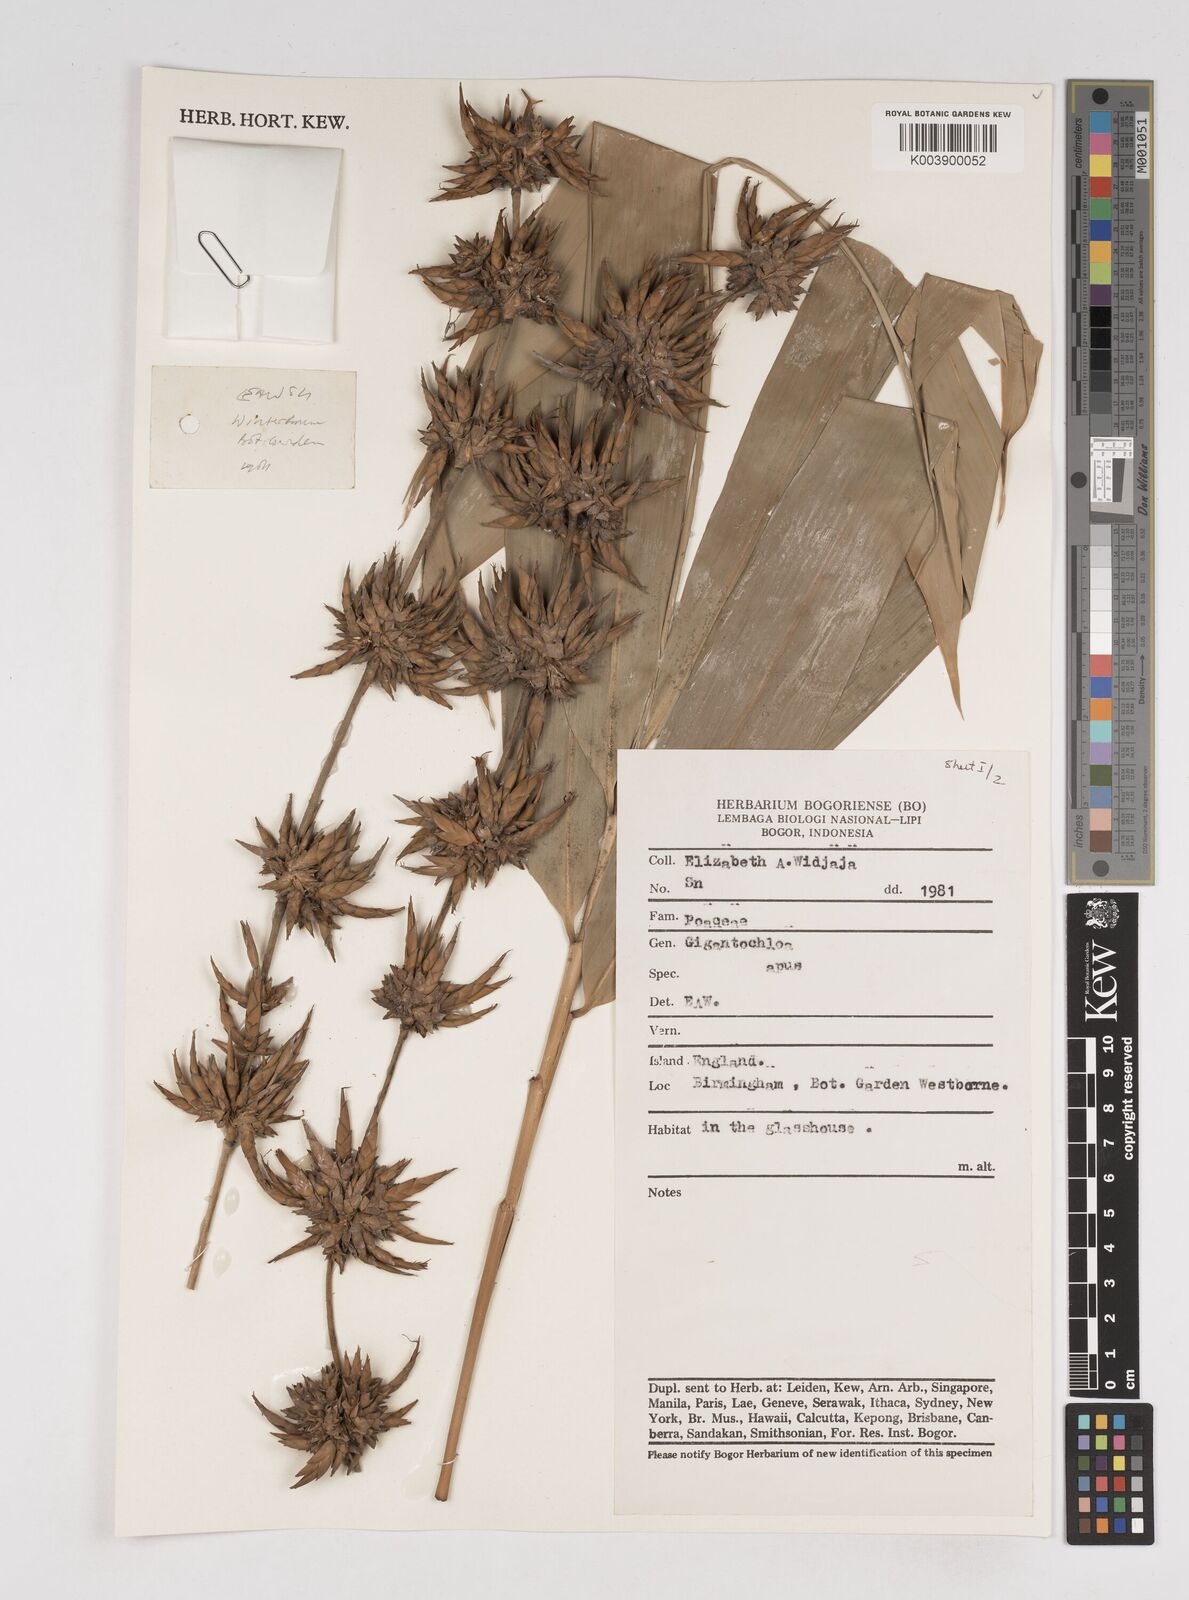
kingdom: Plantae
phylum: Tracheophyta
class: Liliopsida
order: Poales
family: Poaceae
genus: Gigantochloa
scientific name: Gigantochloa apus
